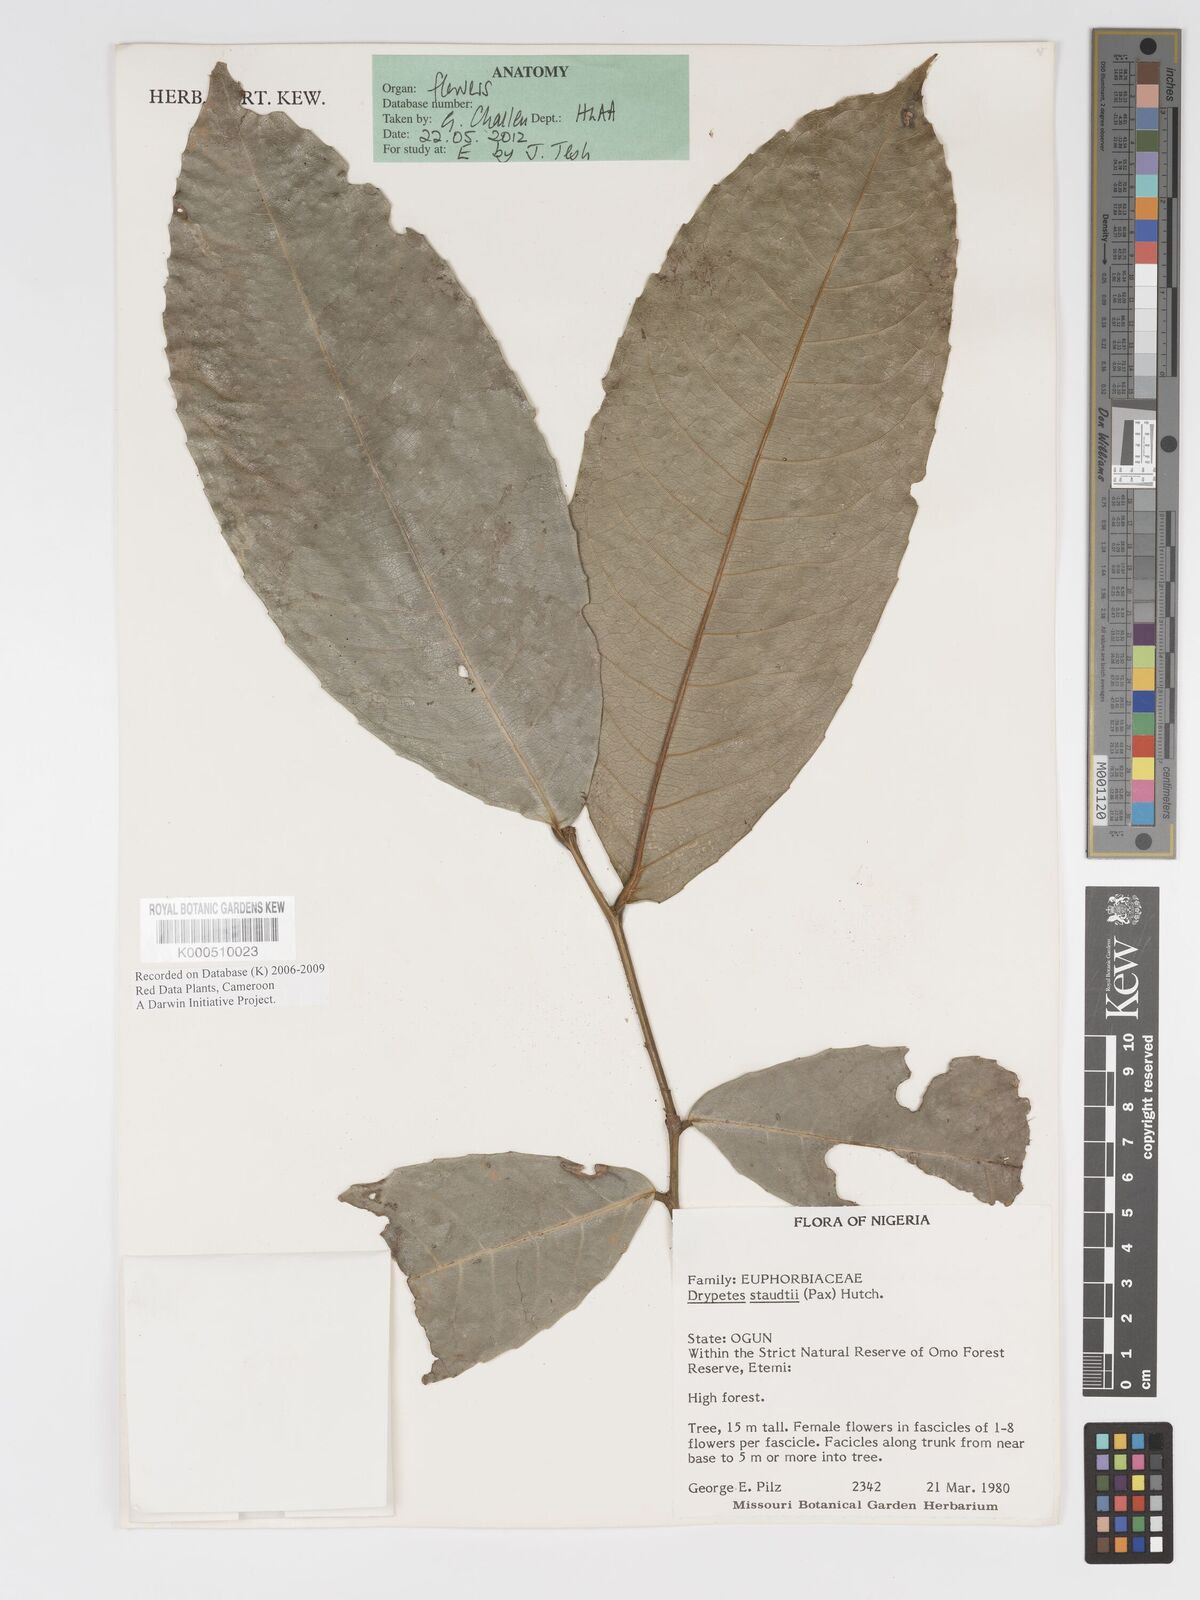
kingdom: Plantae
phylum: Tracheophyta
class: Magnoliopsida
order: Malpighiales
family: Putranjivaceae
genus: Drypetes
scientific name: Drypetes staudtii
